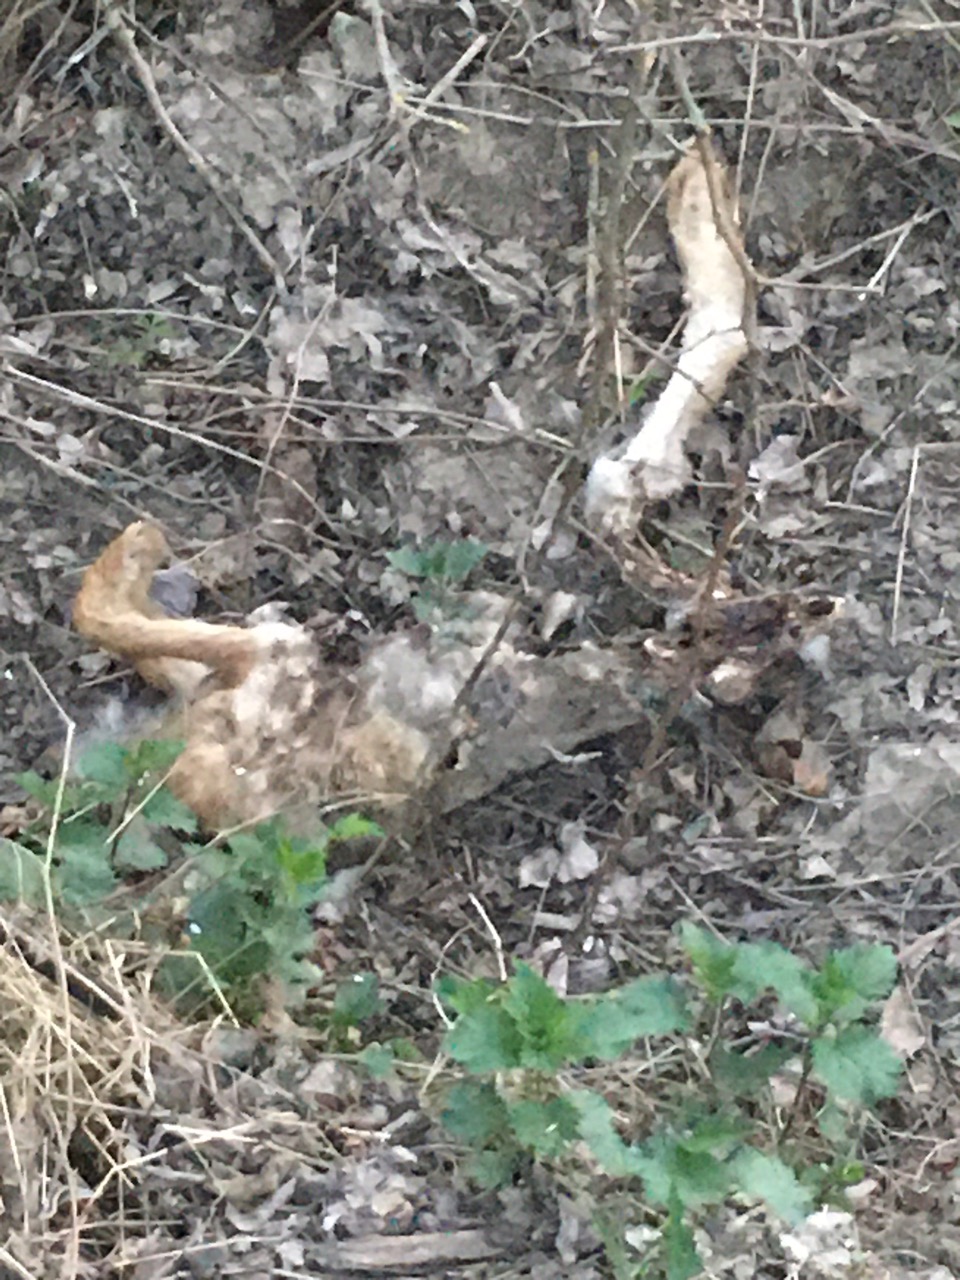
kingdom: Animalia
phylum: Chordata
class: Mammalia
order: Lagomorpha
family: Leporidae
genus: Lepus
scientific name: Lepus europaeus
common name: European hare
